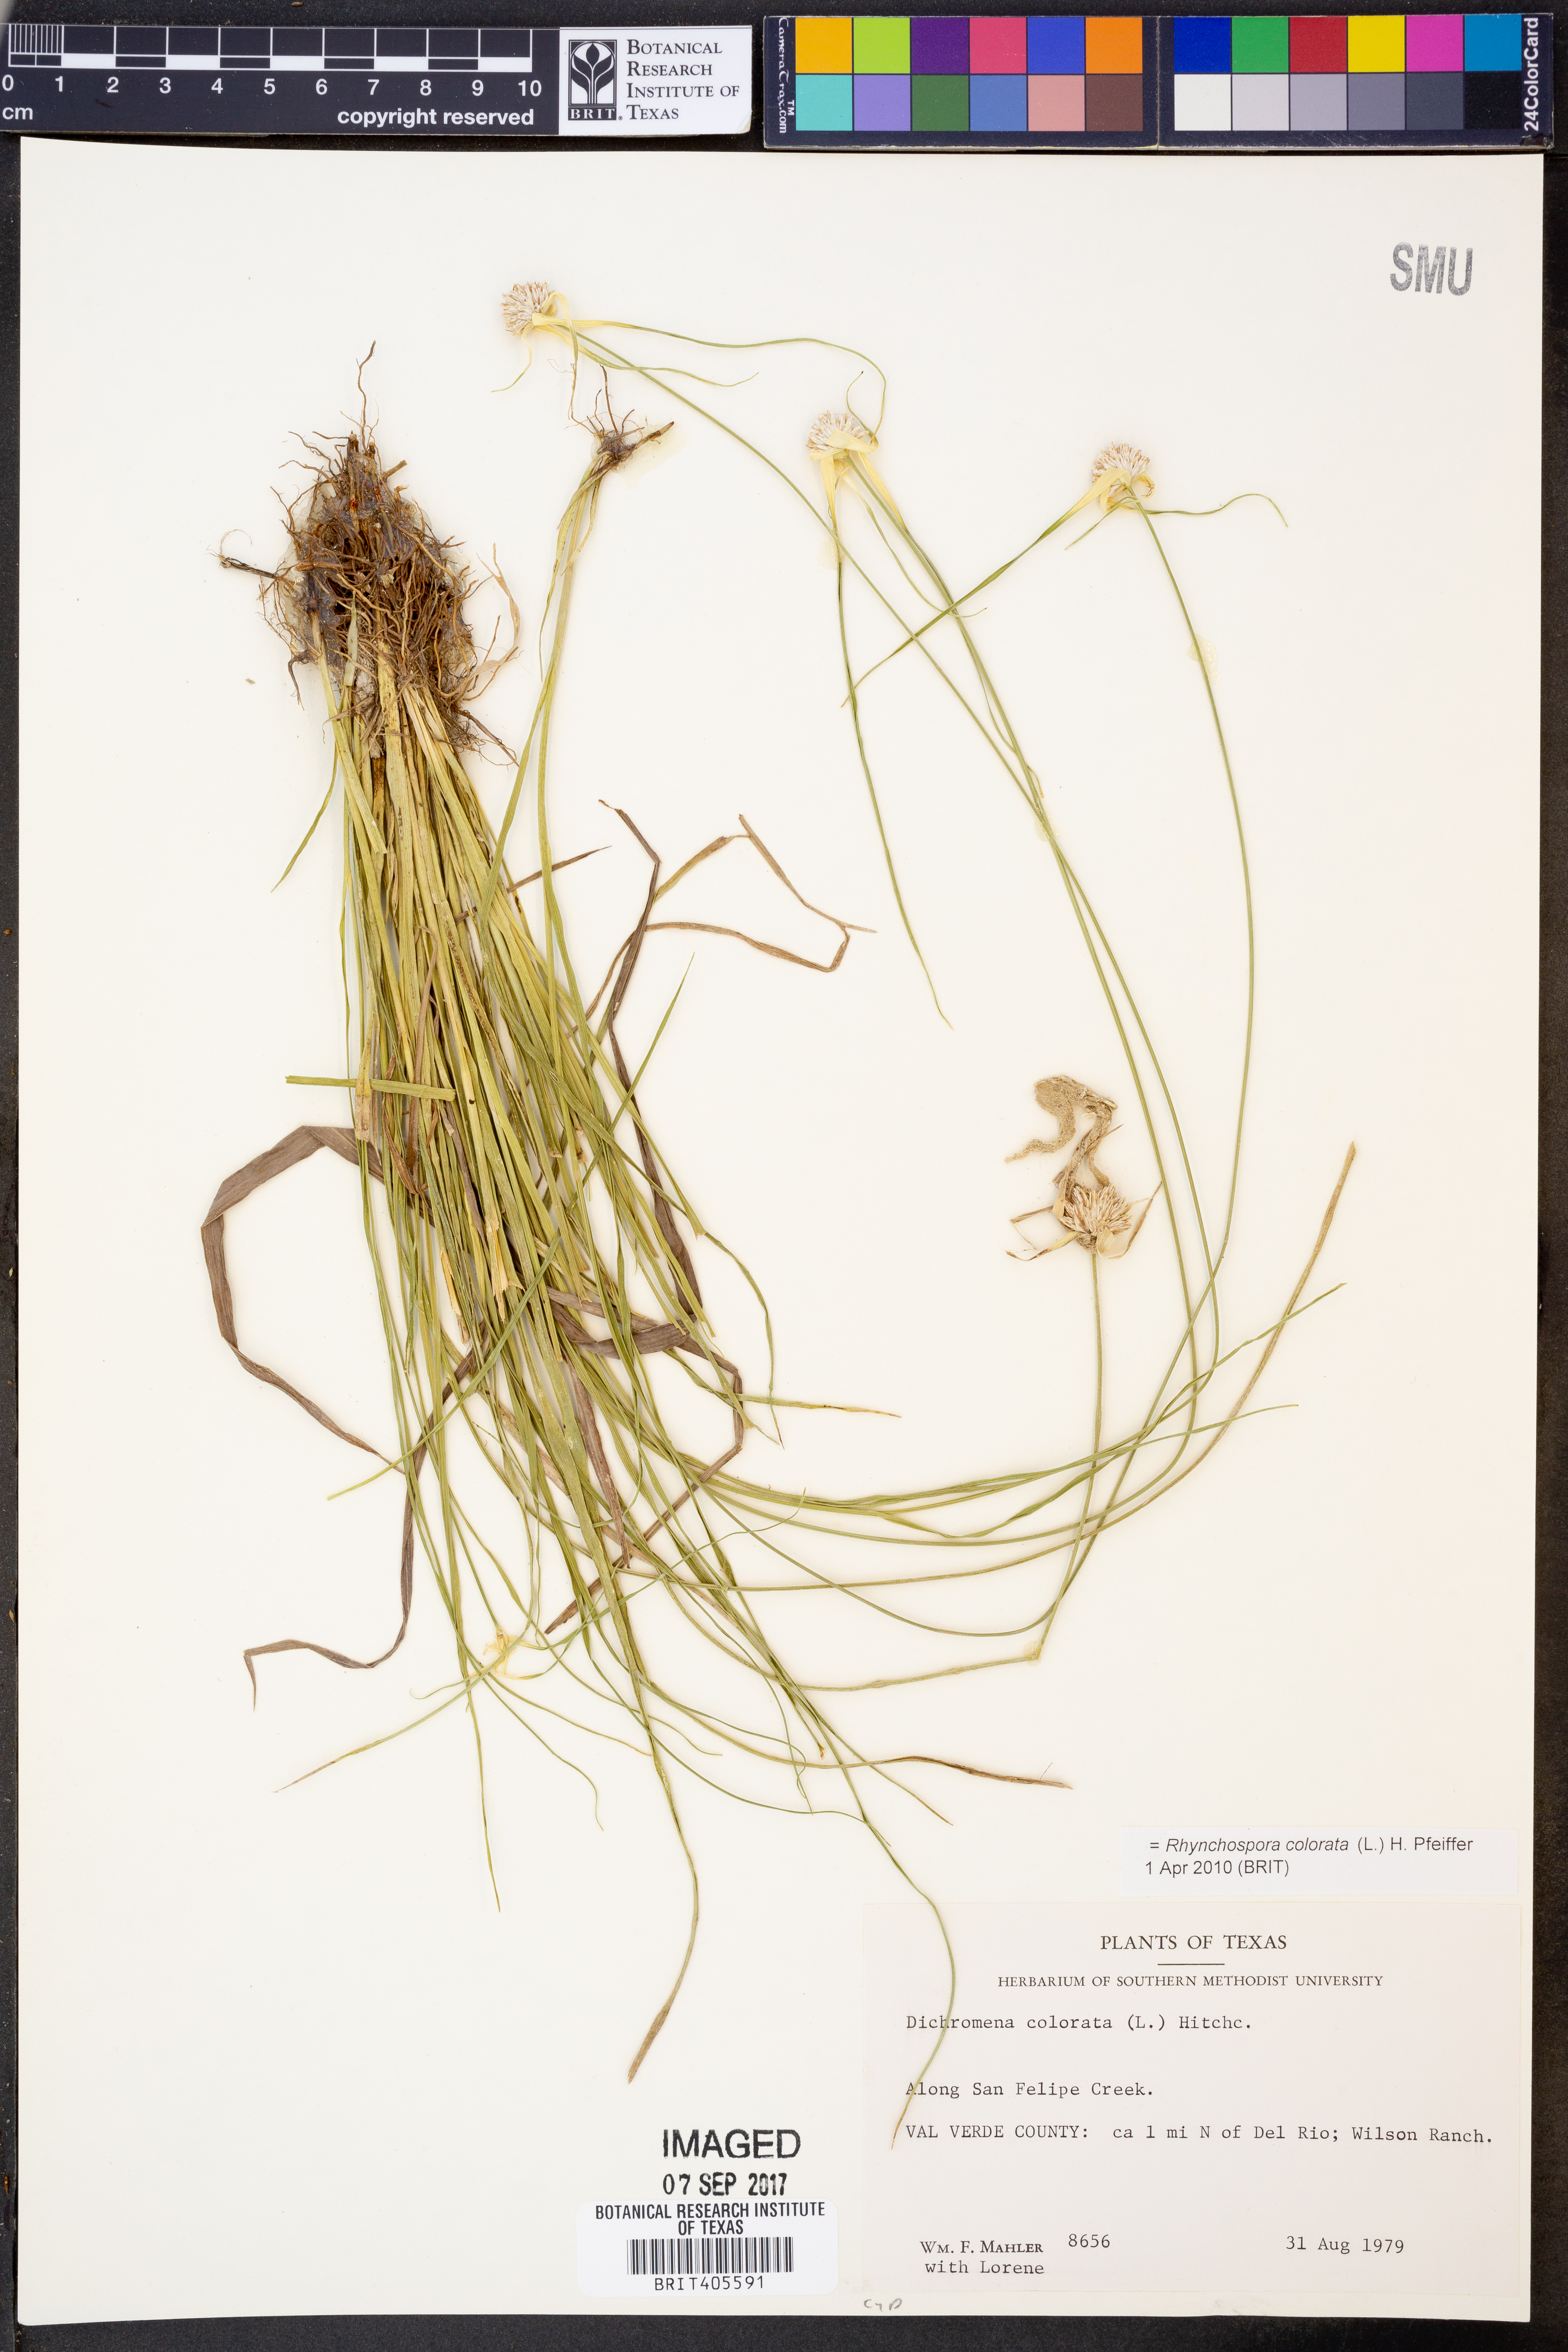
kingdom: Plantae
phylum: Tracheophyta
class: Liliopsida
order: Poales
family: Cyperaceae
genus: Rhynchospora
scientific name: Rhynchospora colorata
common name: Star sedge
